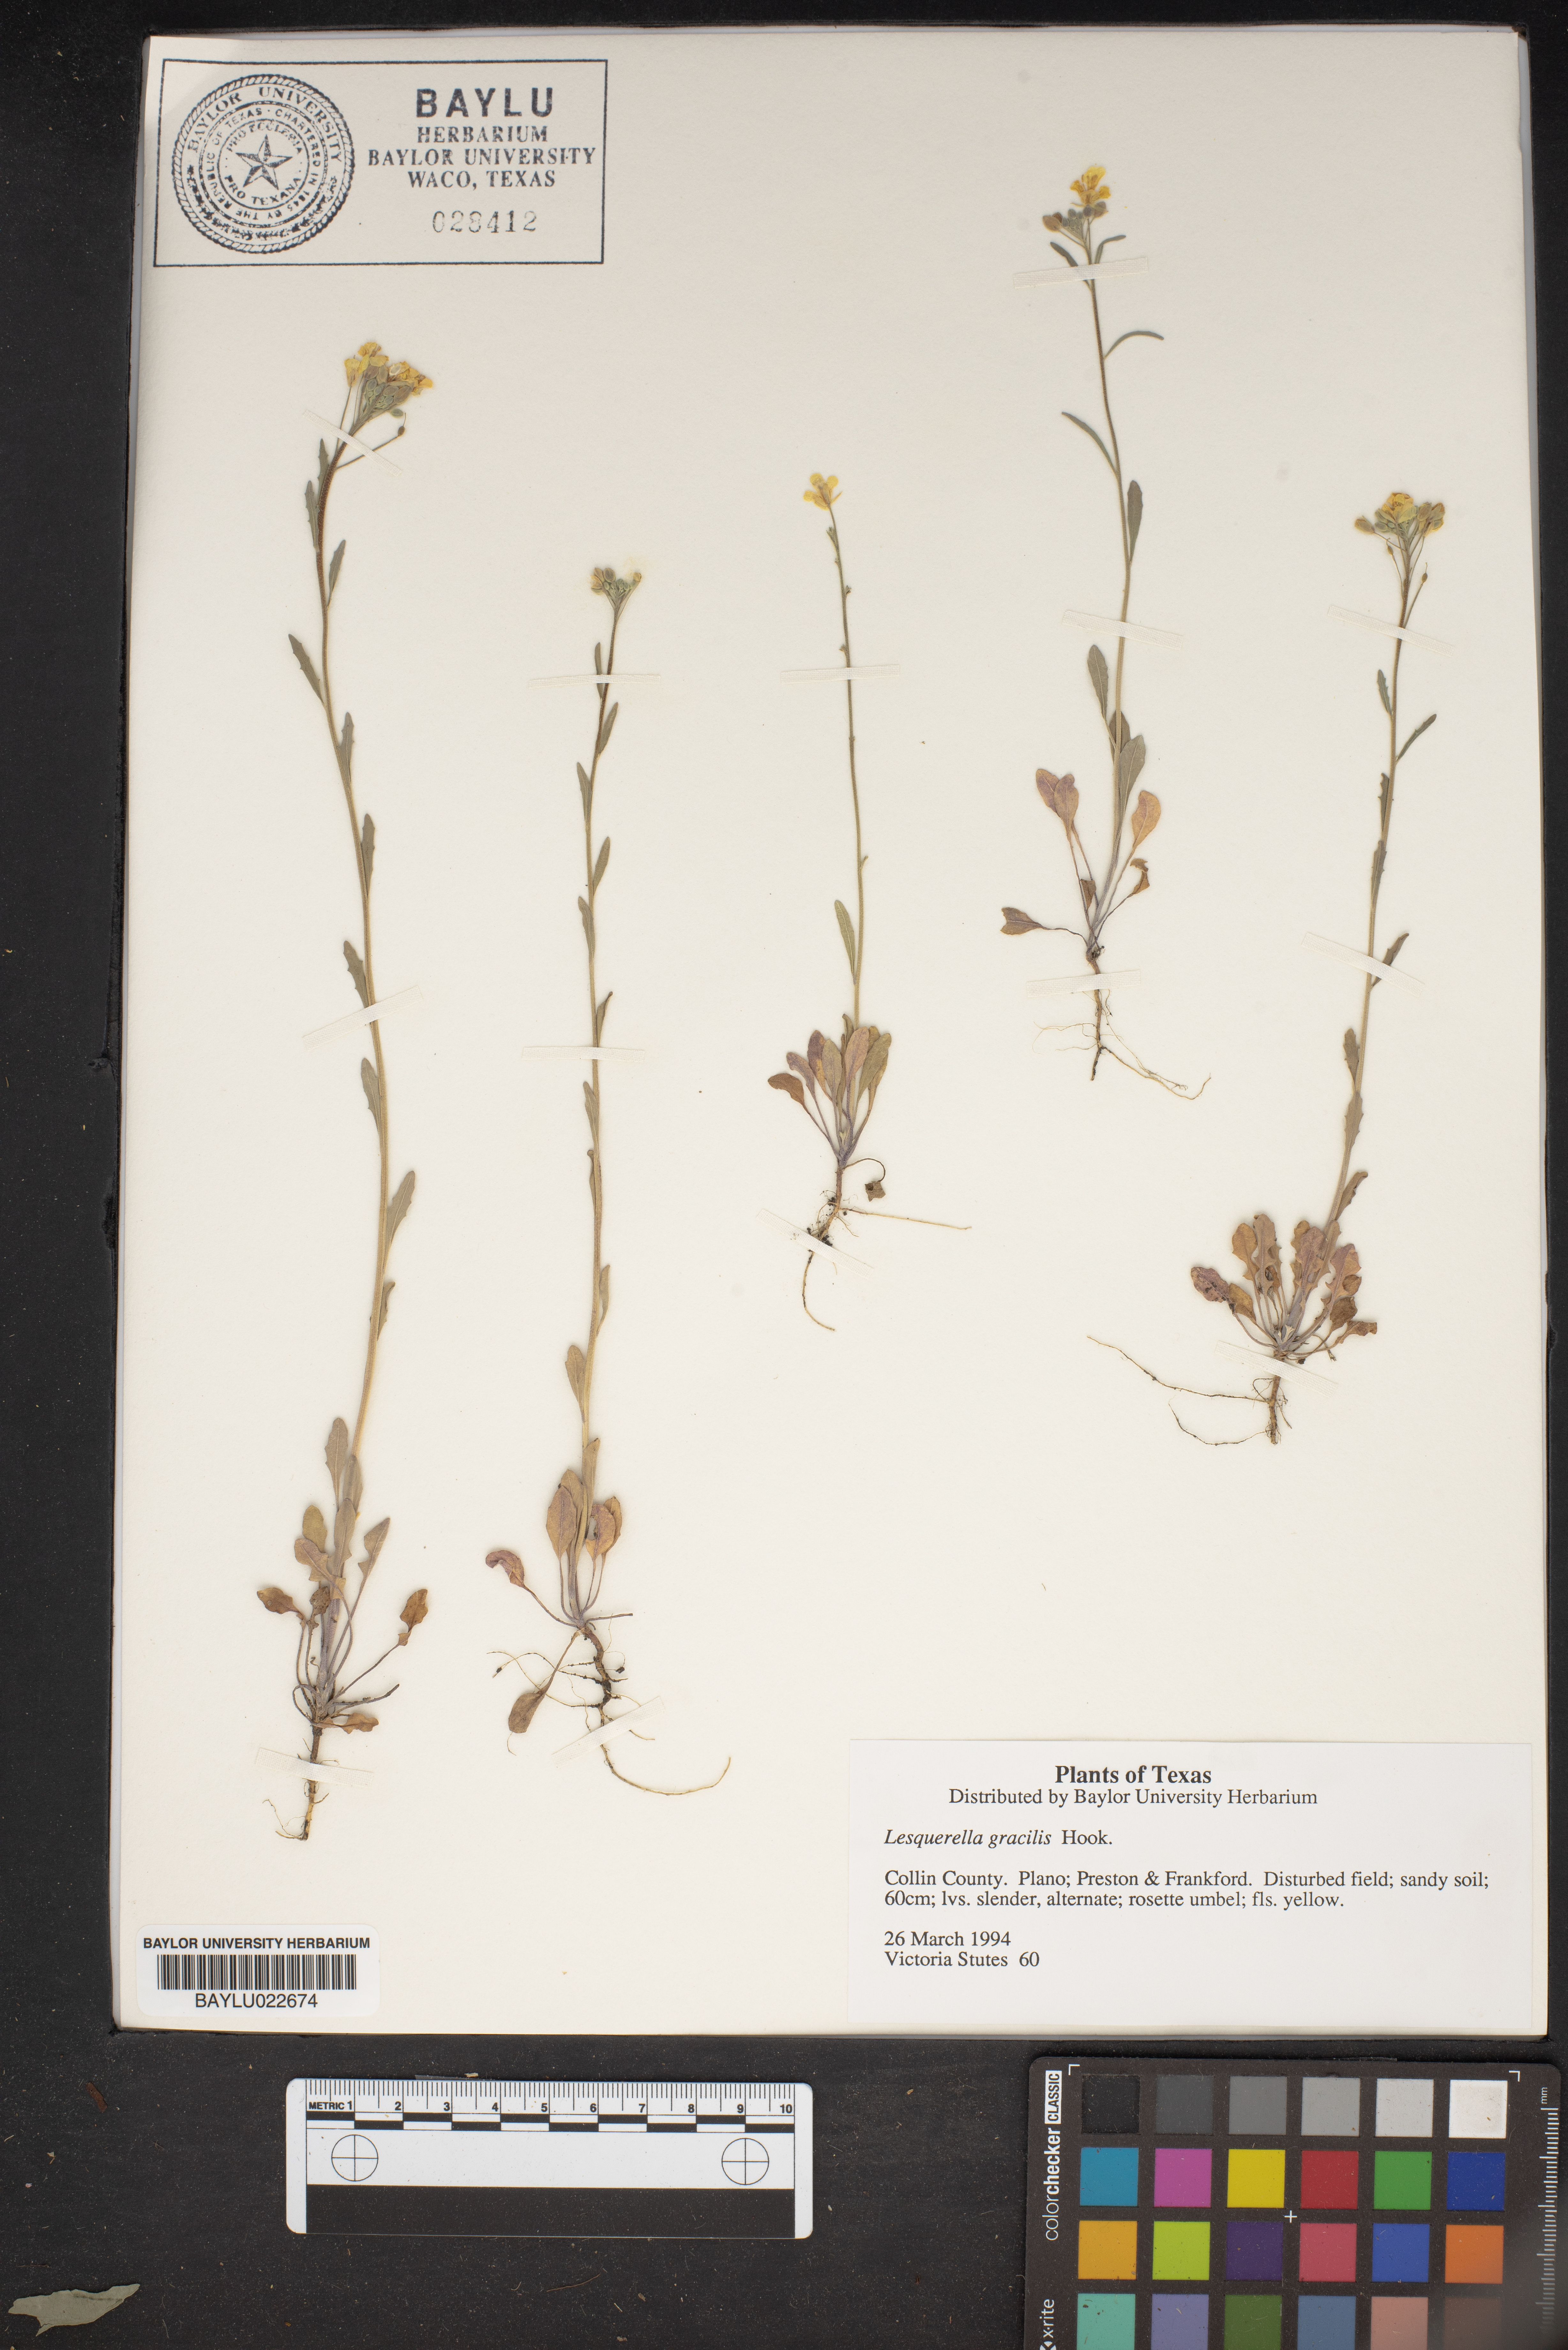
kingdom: Plantae
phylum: Tracheophyta
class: Magnoliopsida
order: Brassicales
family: Brassicaceae
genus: Physaria
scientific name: Physaria gracilis
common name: Spreading bladderpod
